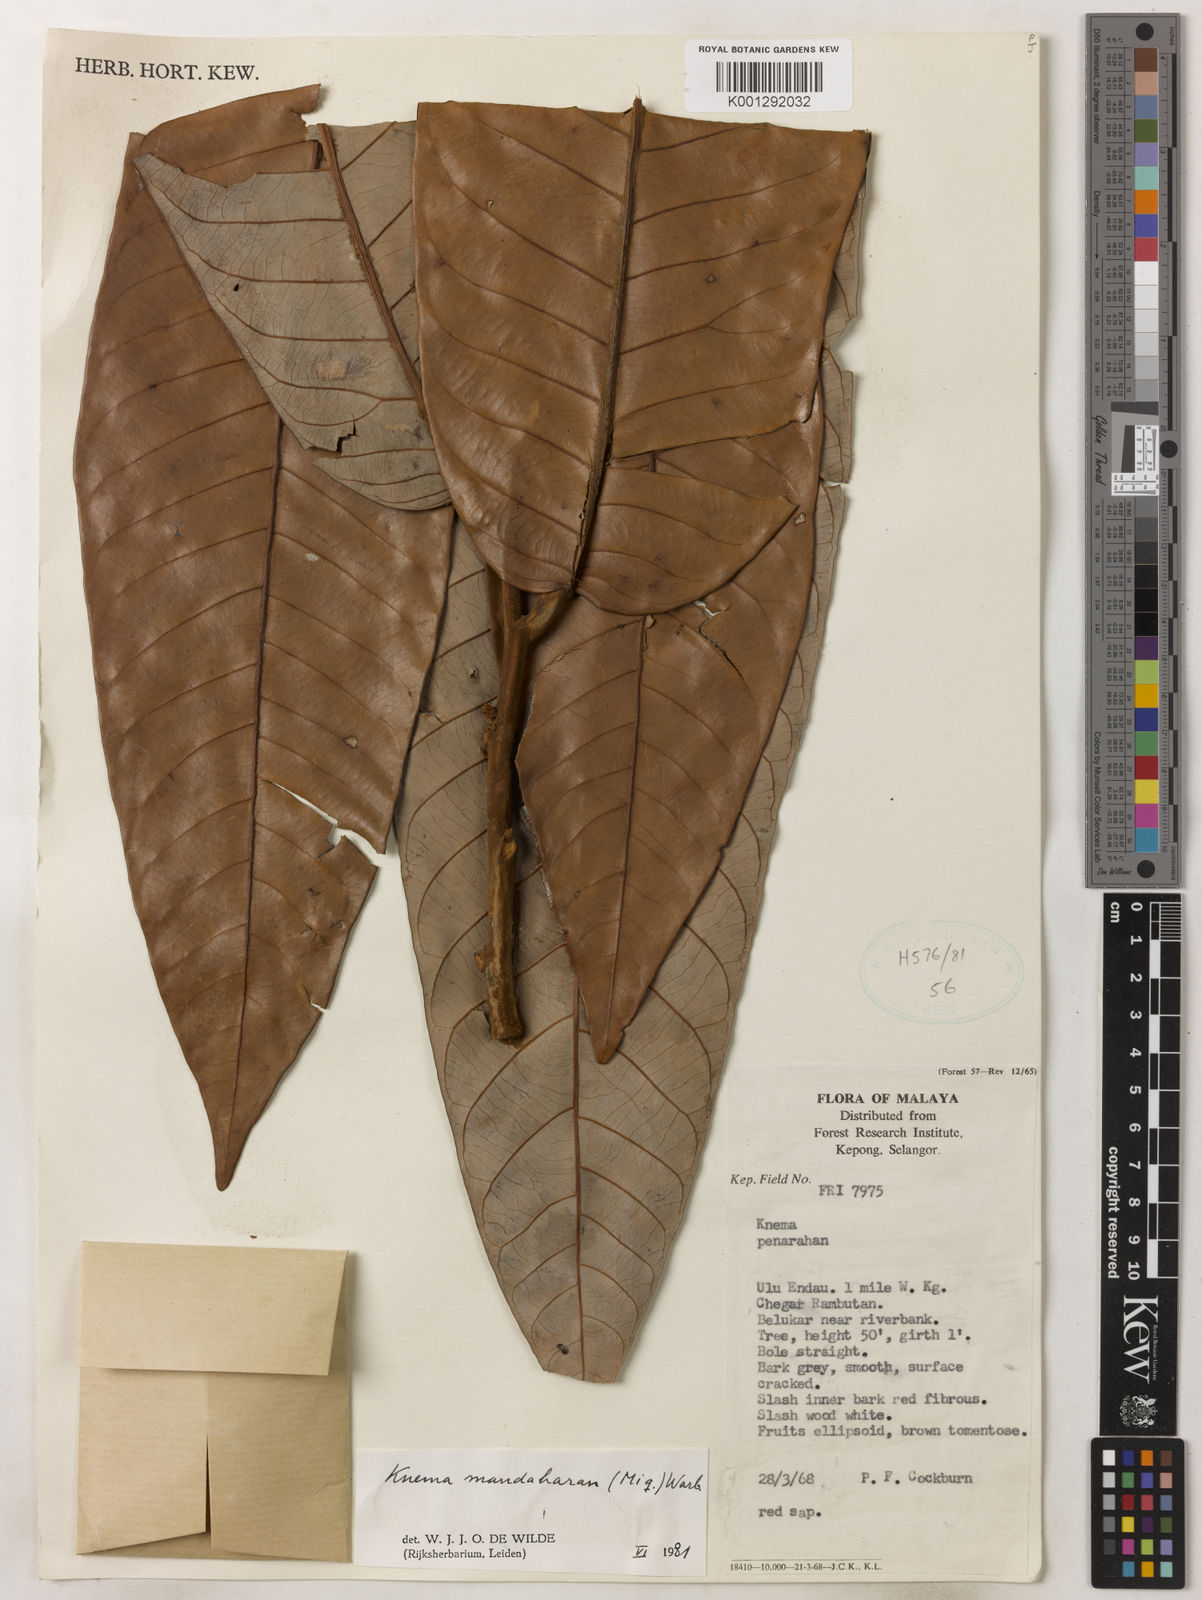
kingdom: Plantae
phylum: Tracheophyta
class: Magnoliopsida
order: Magnoliales
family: Myristicaceae
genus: Knema
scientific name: Knema mandaharan
